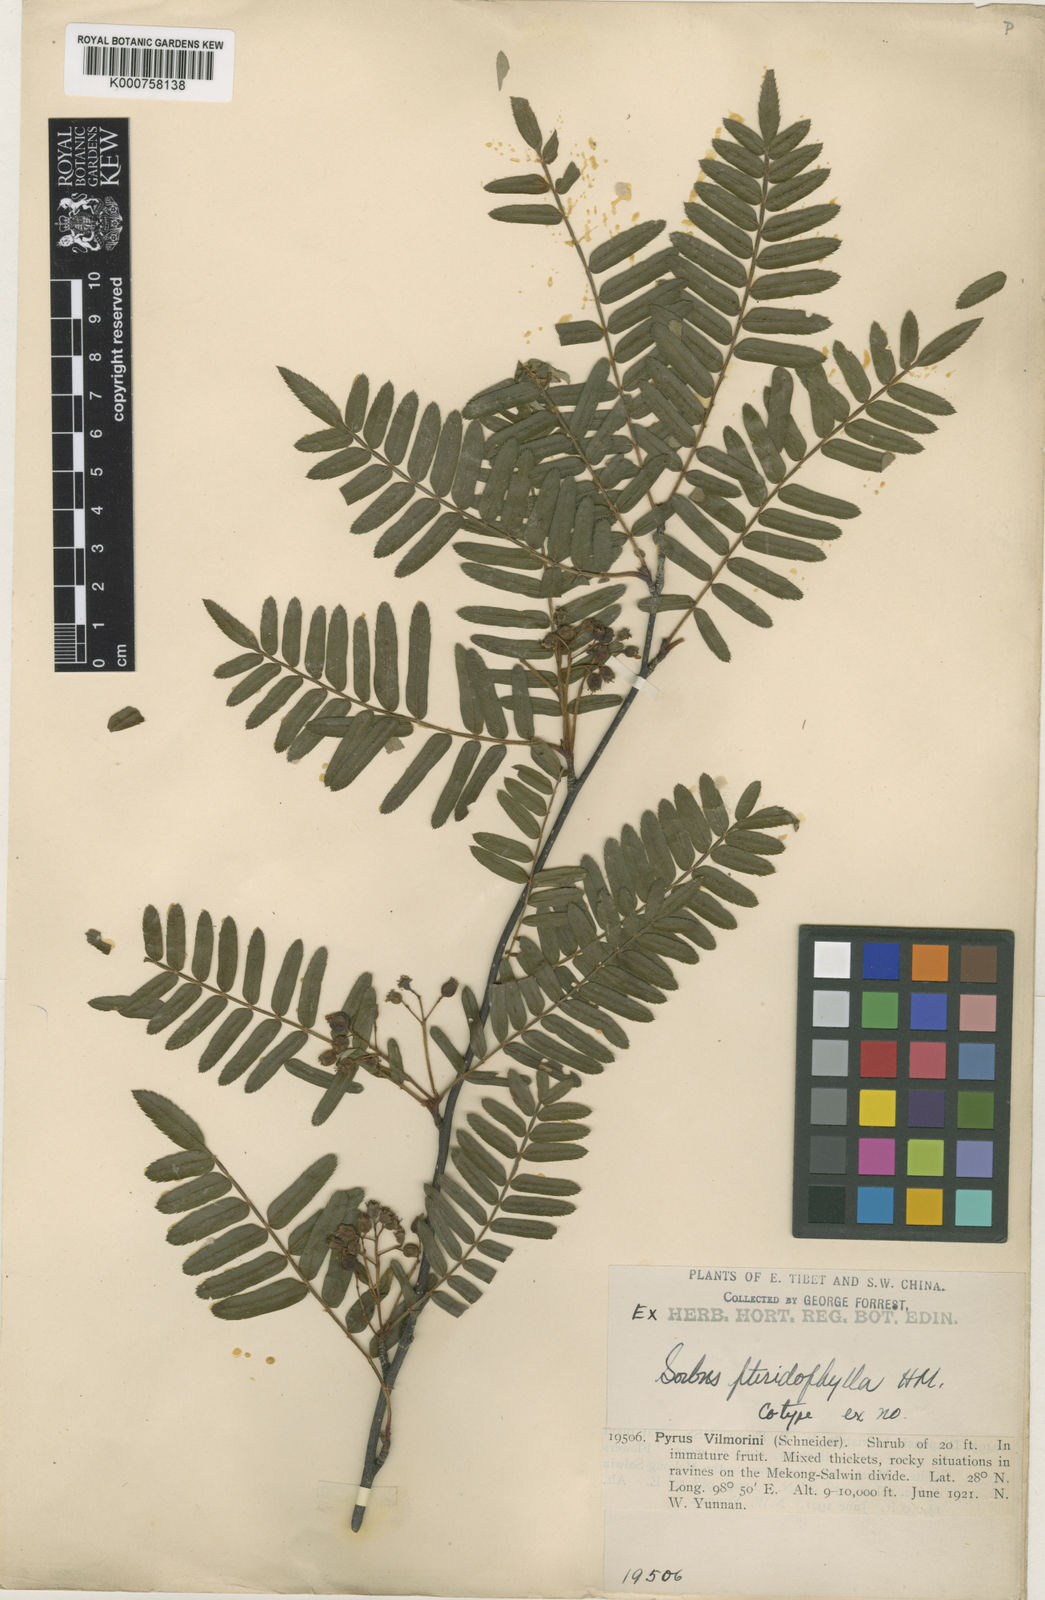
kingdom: Plantae
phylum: Tracheophyta
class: Magnoliopsida
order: Rosales
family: Rosaceae
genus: Sorbus
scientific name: Sorbus glomerulata
